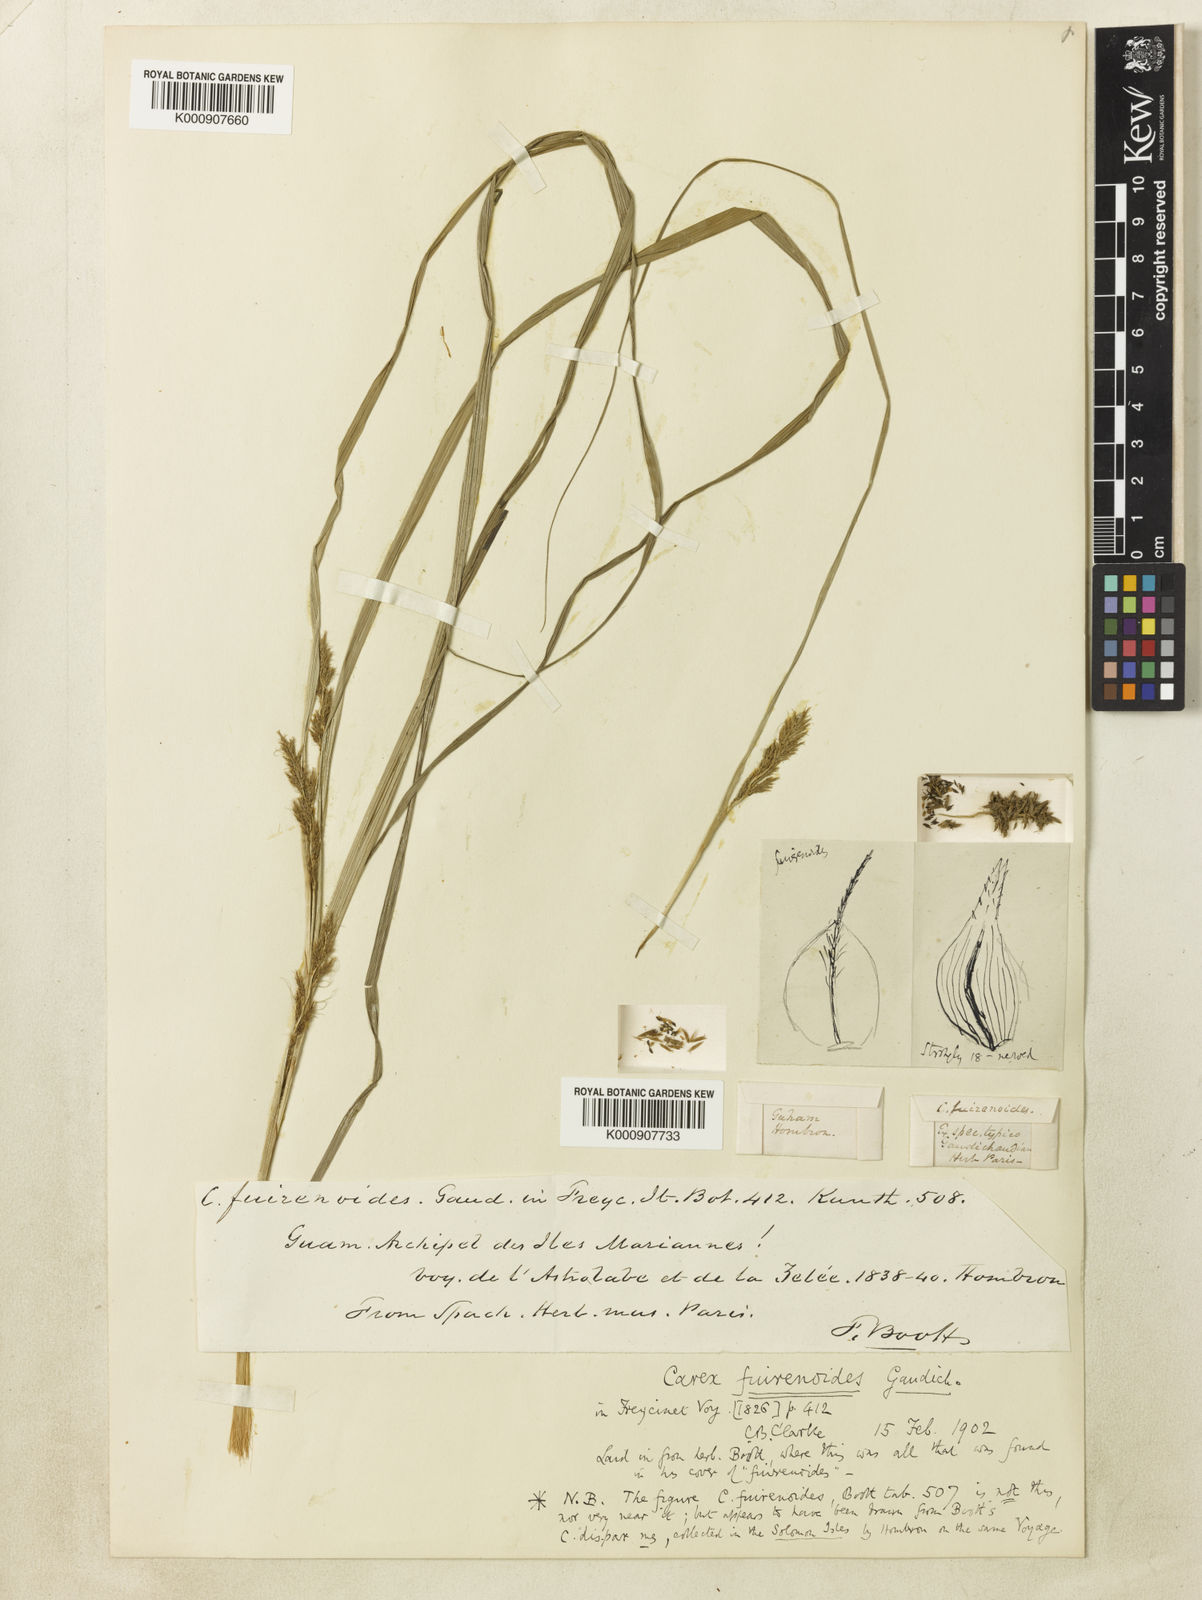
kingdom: Plantae
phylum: Tracheophyta
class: Liliopsida
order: Poales
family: Cyperaceae
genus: Carex
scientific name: Carex
